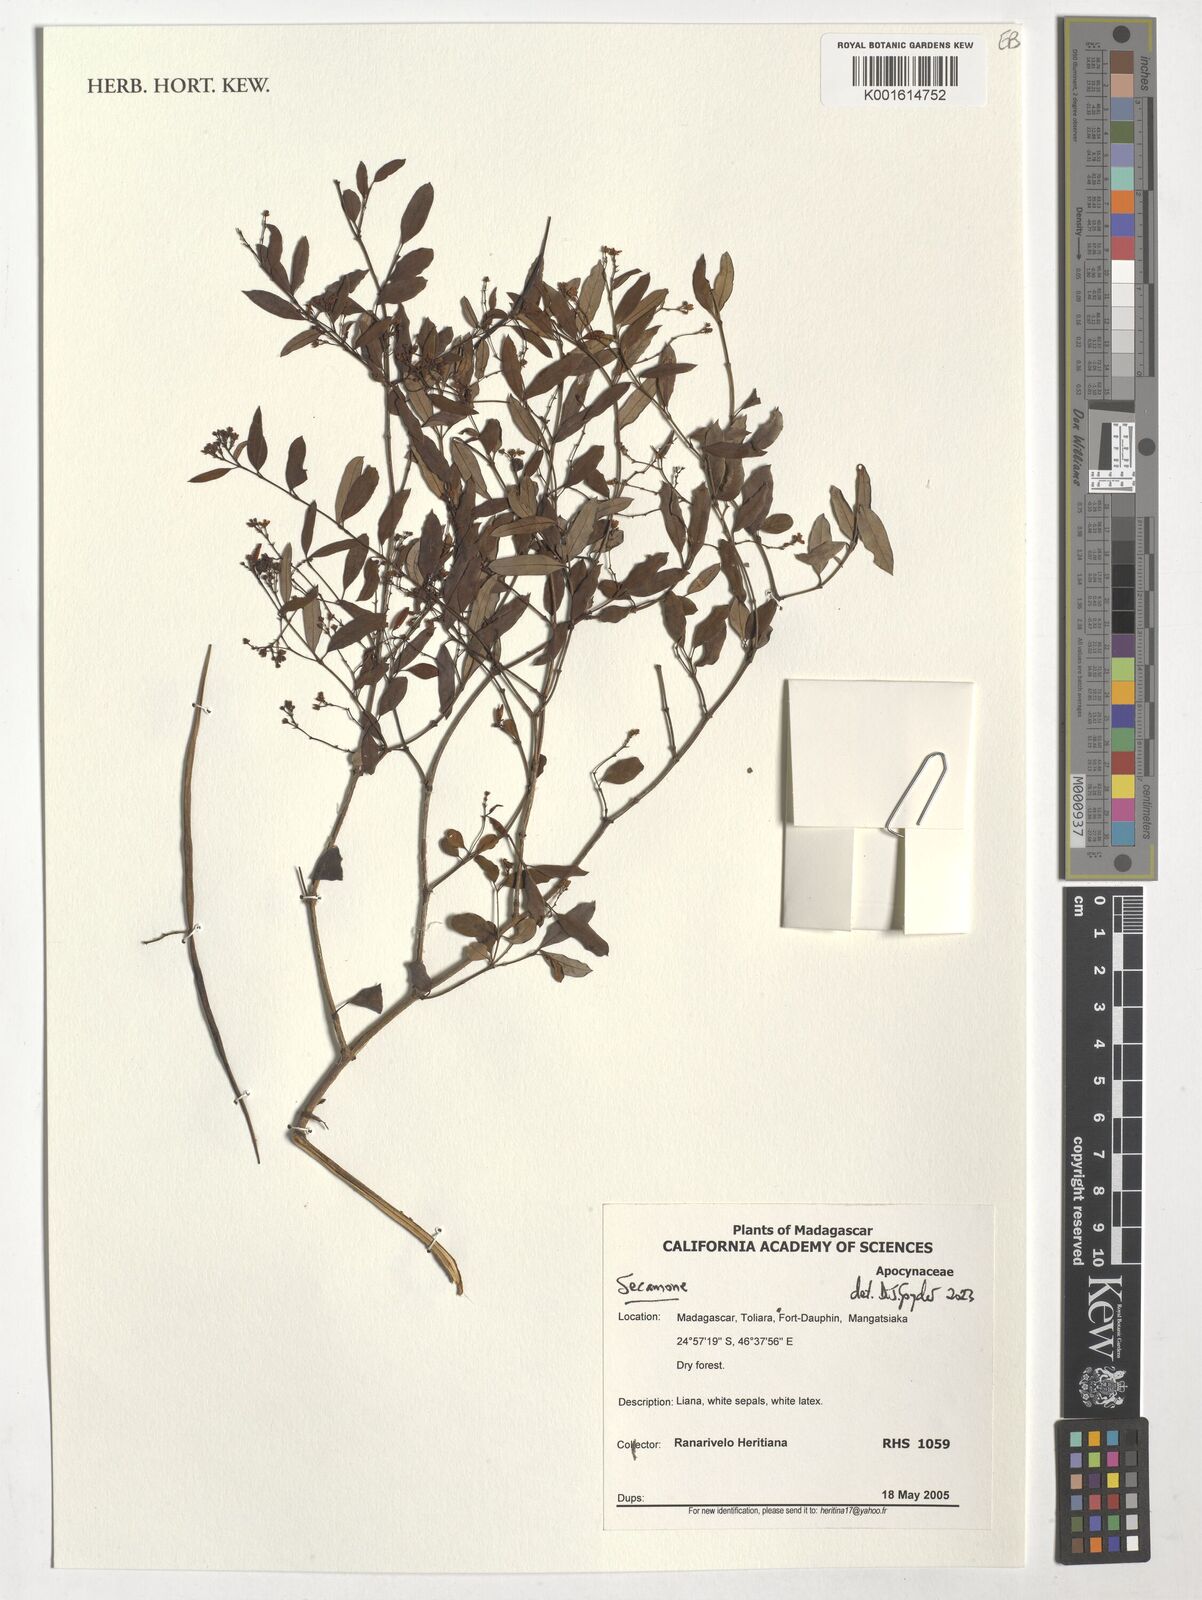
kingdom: Plantae
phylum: Tracheophyta
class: Magnoliopsida
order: Gentianales
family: Apocynaceae
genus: Secamone
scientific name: Secamone
